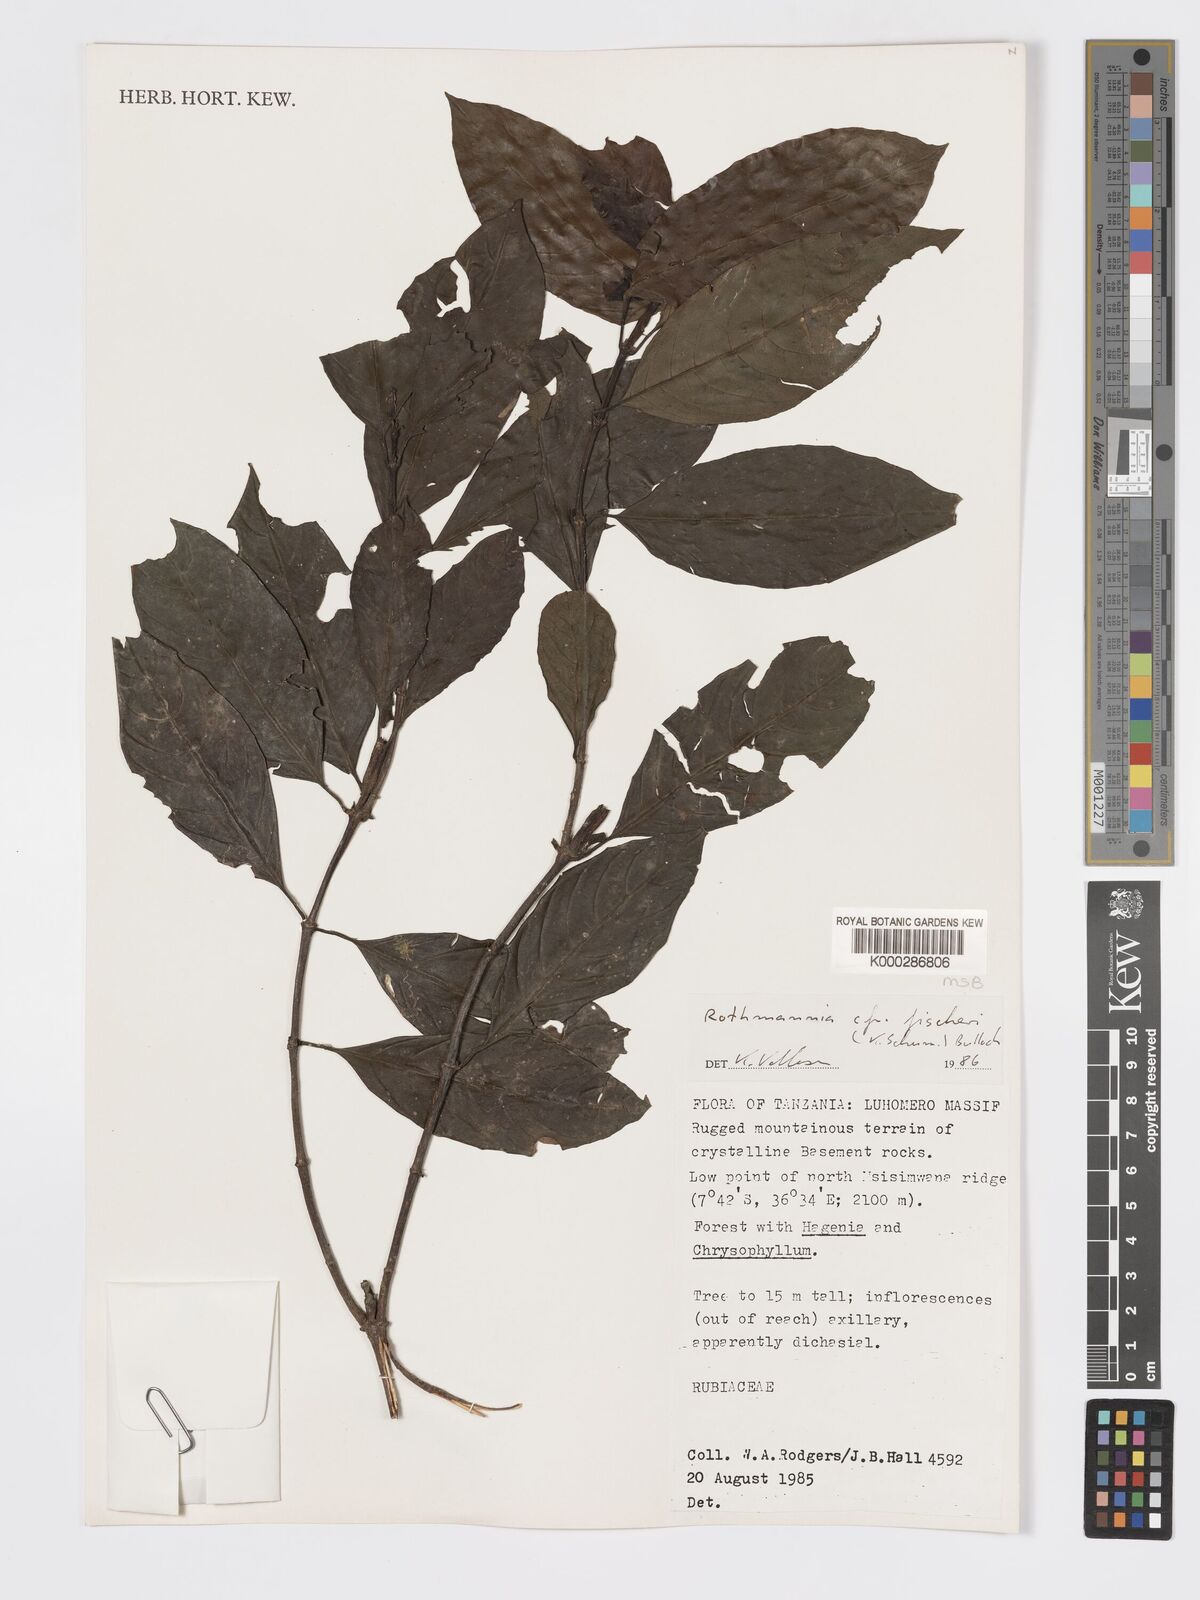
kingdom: Plantae
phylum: Tracheophyta
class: Magnoliopsida
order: Gentianales
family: Rubiaceae
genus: Rothmannia
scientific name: Rothmannia ravae
